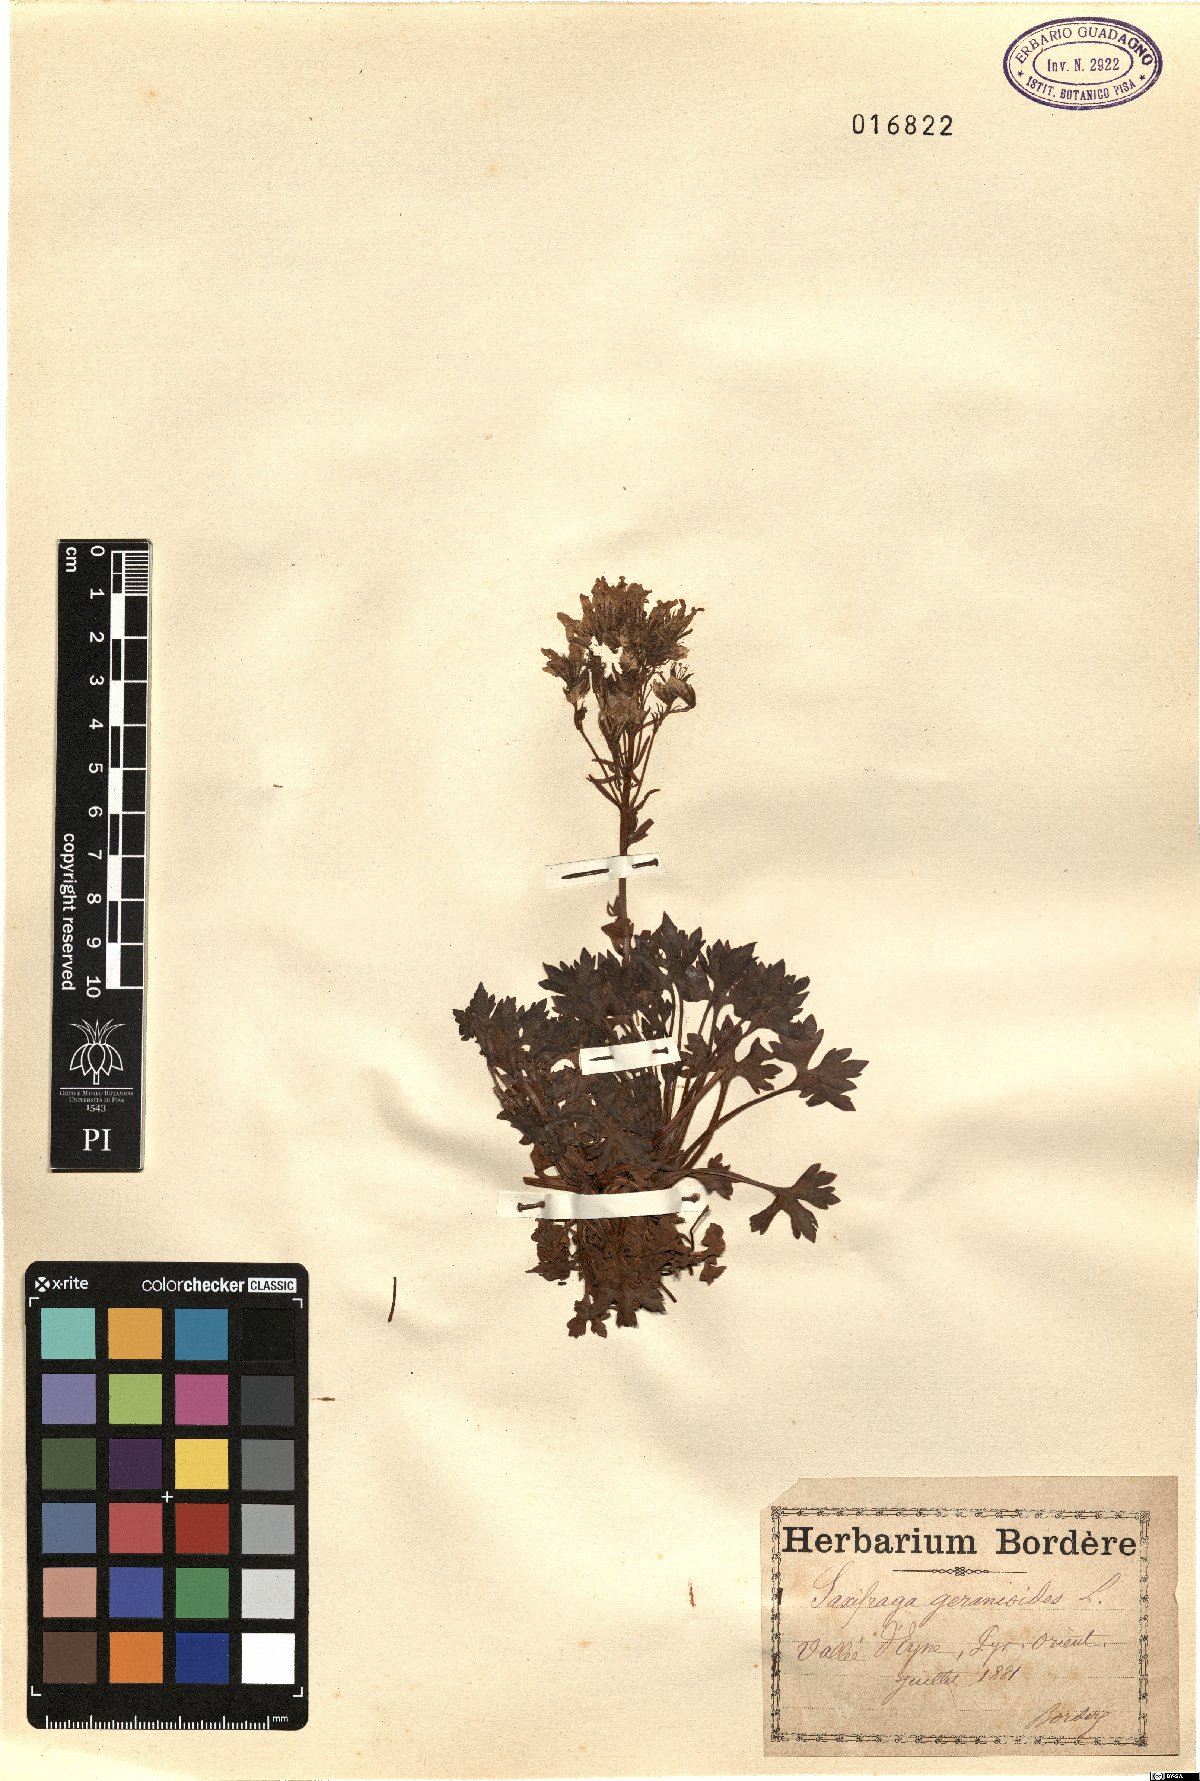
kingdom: Plantae
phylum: Tracheophyta
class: Magnoliopsida
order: Saxifragales
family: Saxifragaceae
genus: Saxifraga
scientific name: Saxifraga geranioides
